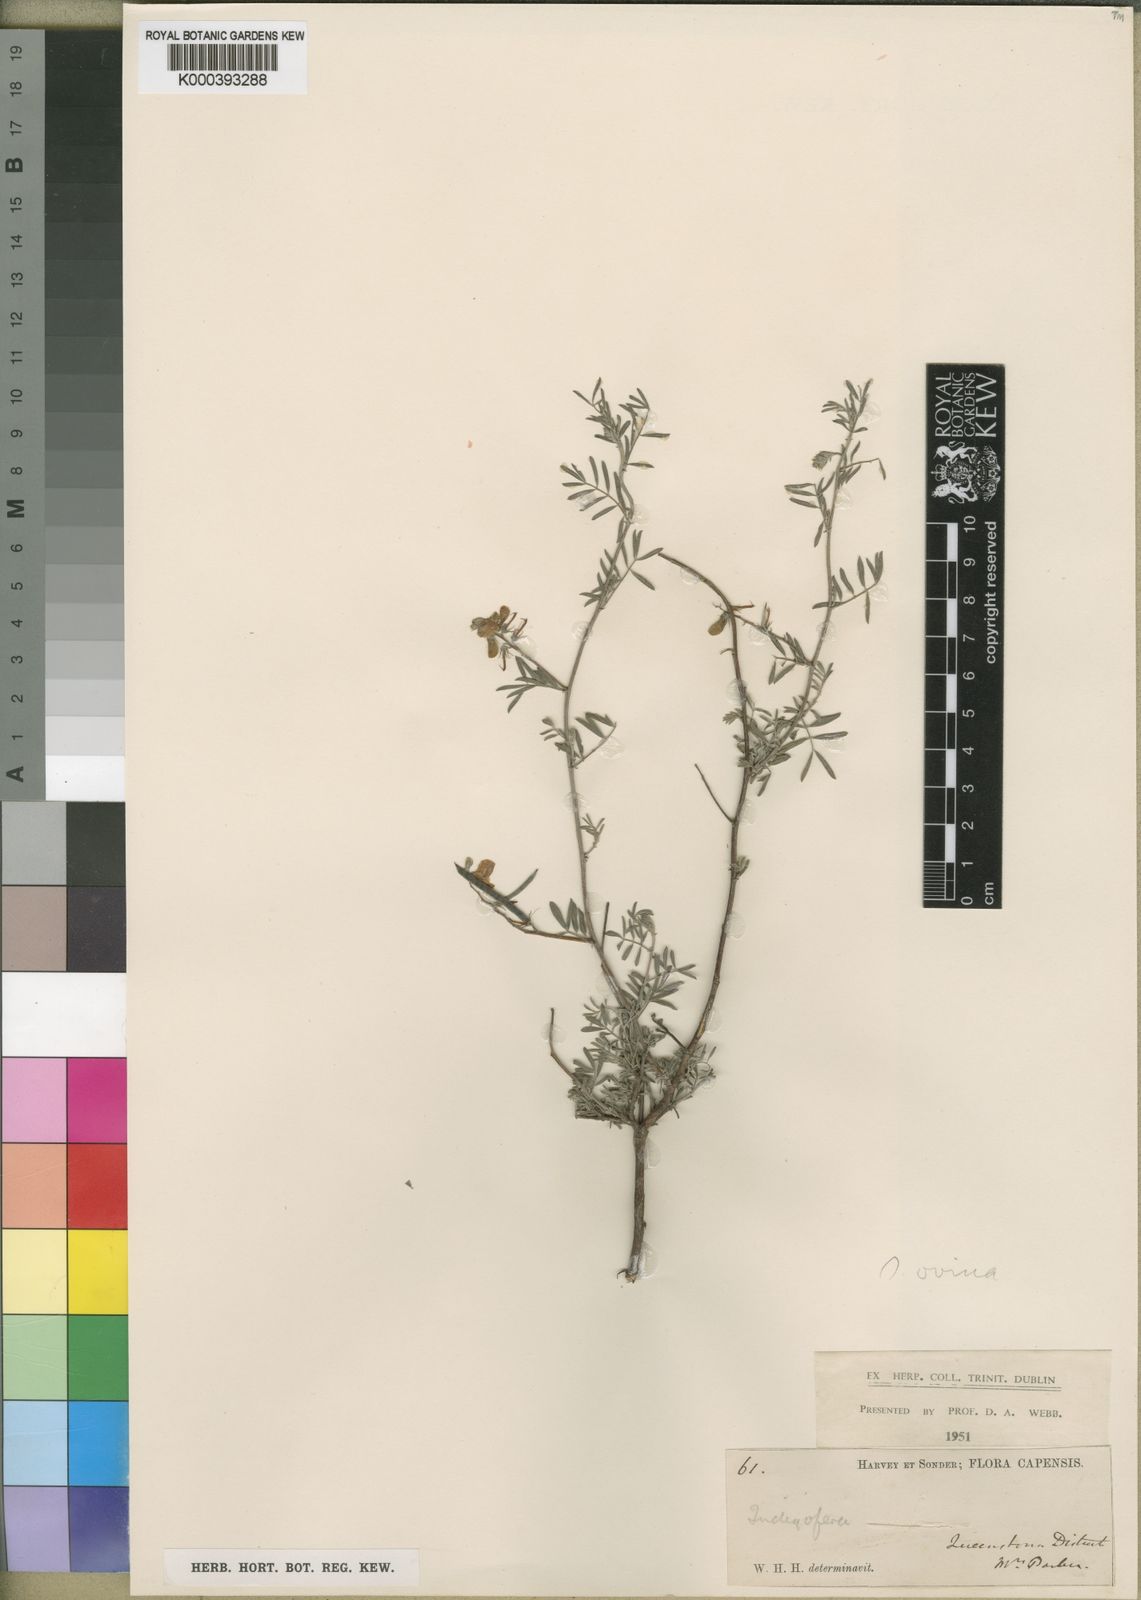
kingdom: Plantae
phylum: Tracheophyta
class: Magnoliopsida
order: Fabales
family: Fabaceae
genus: Indigofera
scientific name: Indigofera ovina
